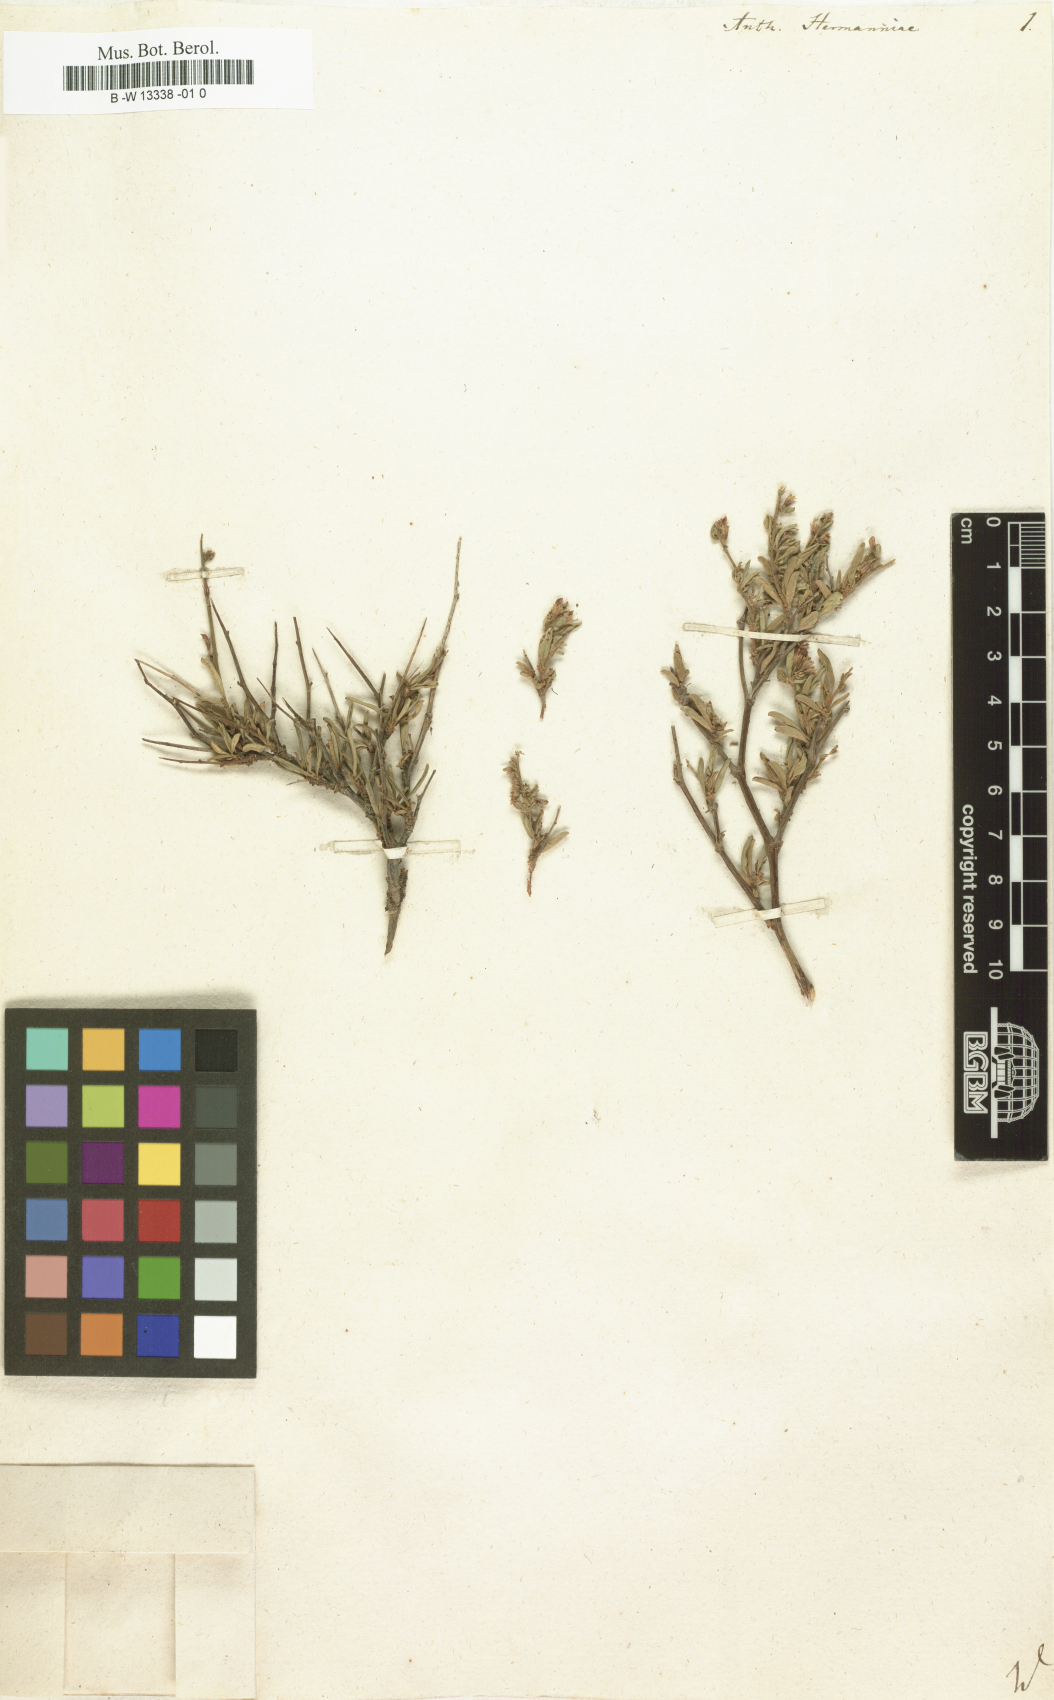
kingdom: Plantae
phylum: Tracheophyta
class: Magnoliopsida
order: Fabales
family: Fabaceae
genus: Anthyllis
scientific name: Anthyllis hermanniae
